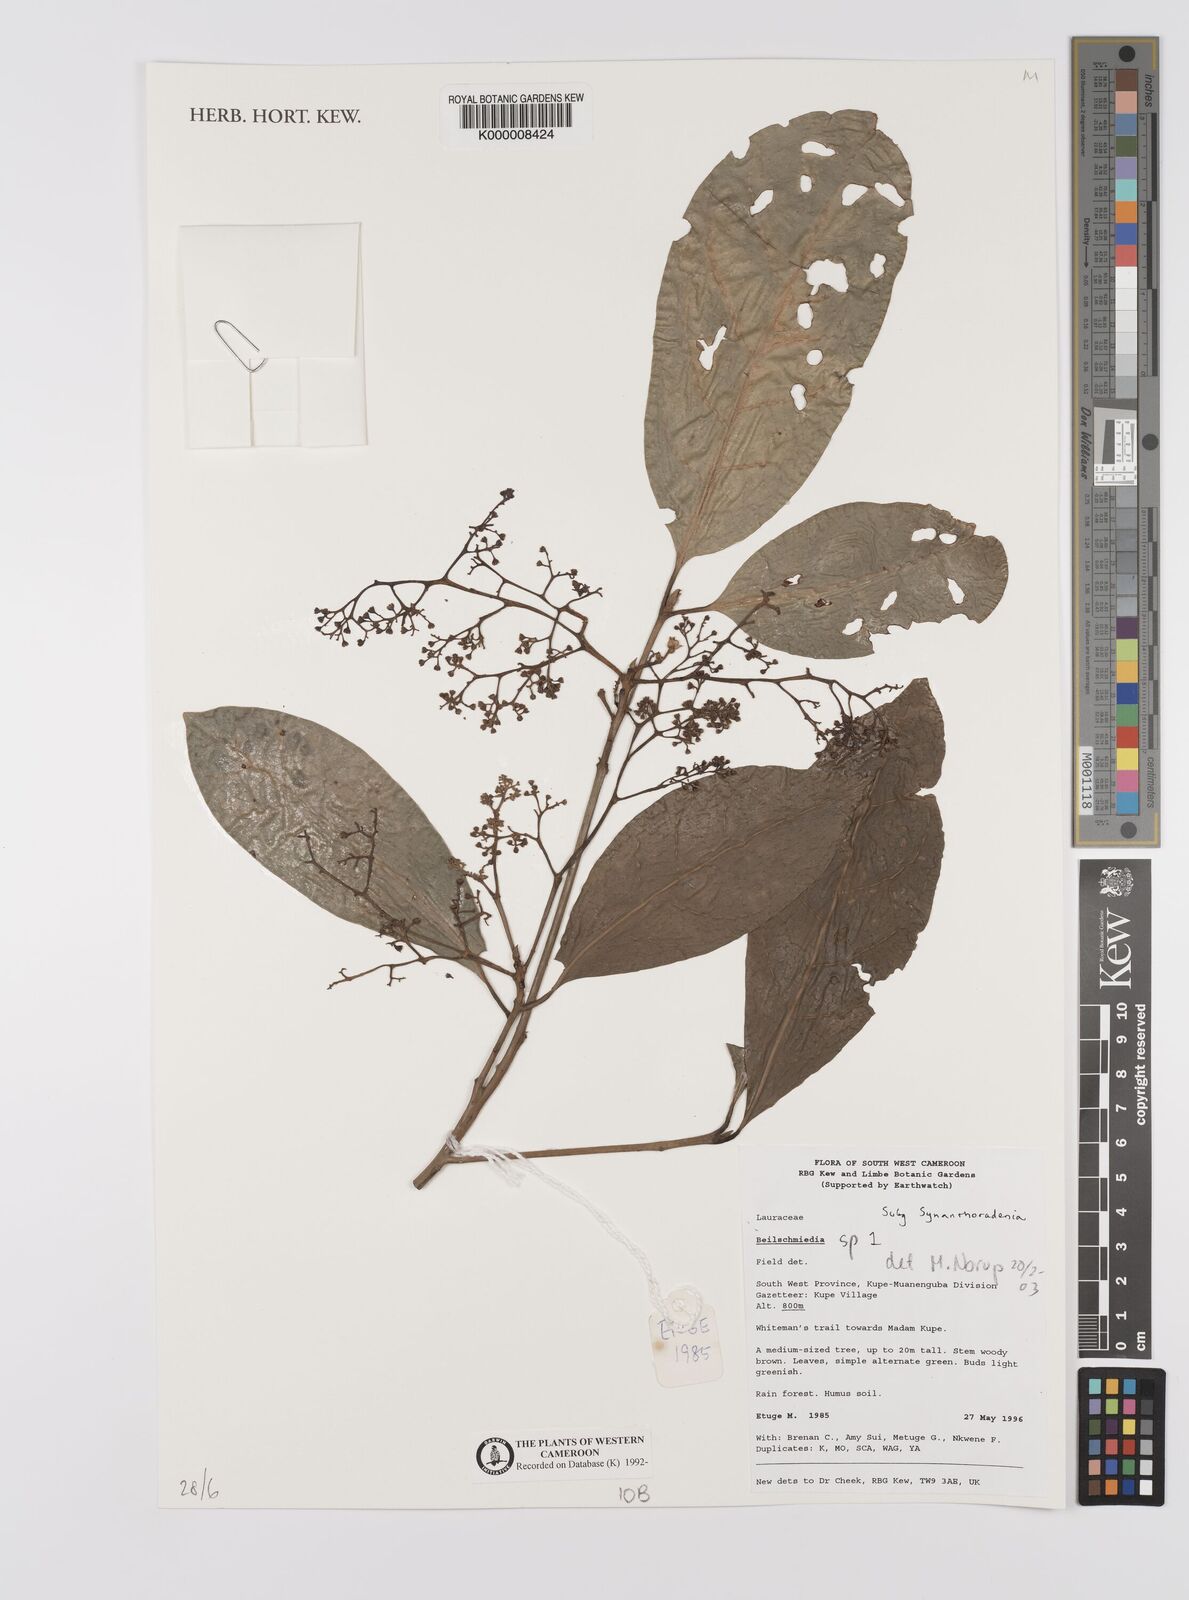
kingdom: Plantae
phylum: Tracheophyta
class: Magnoliopsida
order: Laurales
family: Lauraceae
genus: Beilschmiedia
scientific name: Beilschmiedia
